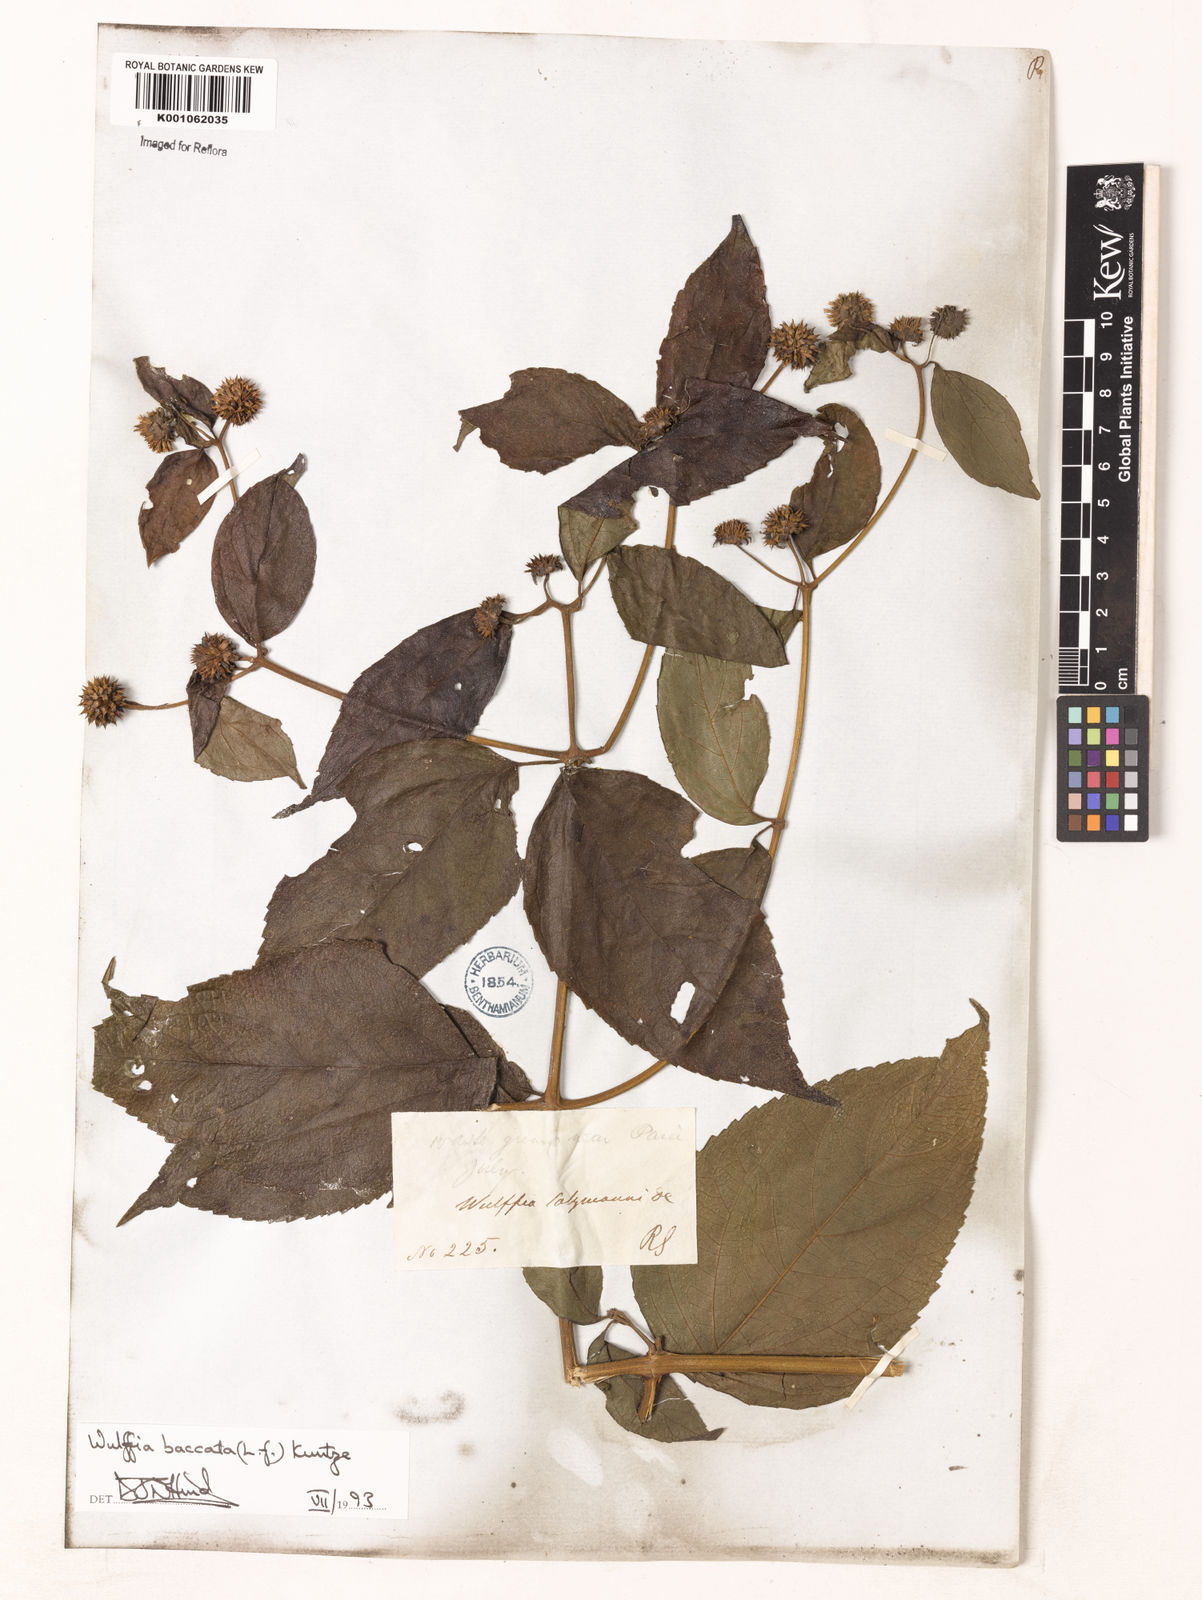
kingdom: Plantae
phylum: Tracheophyta
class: Magnoliopsida
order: Asterales
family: Asteraceae
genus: Tilesia
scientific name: Tilesia baccata
